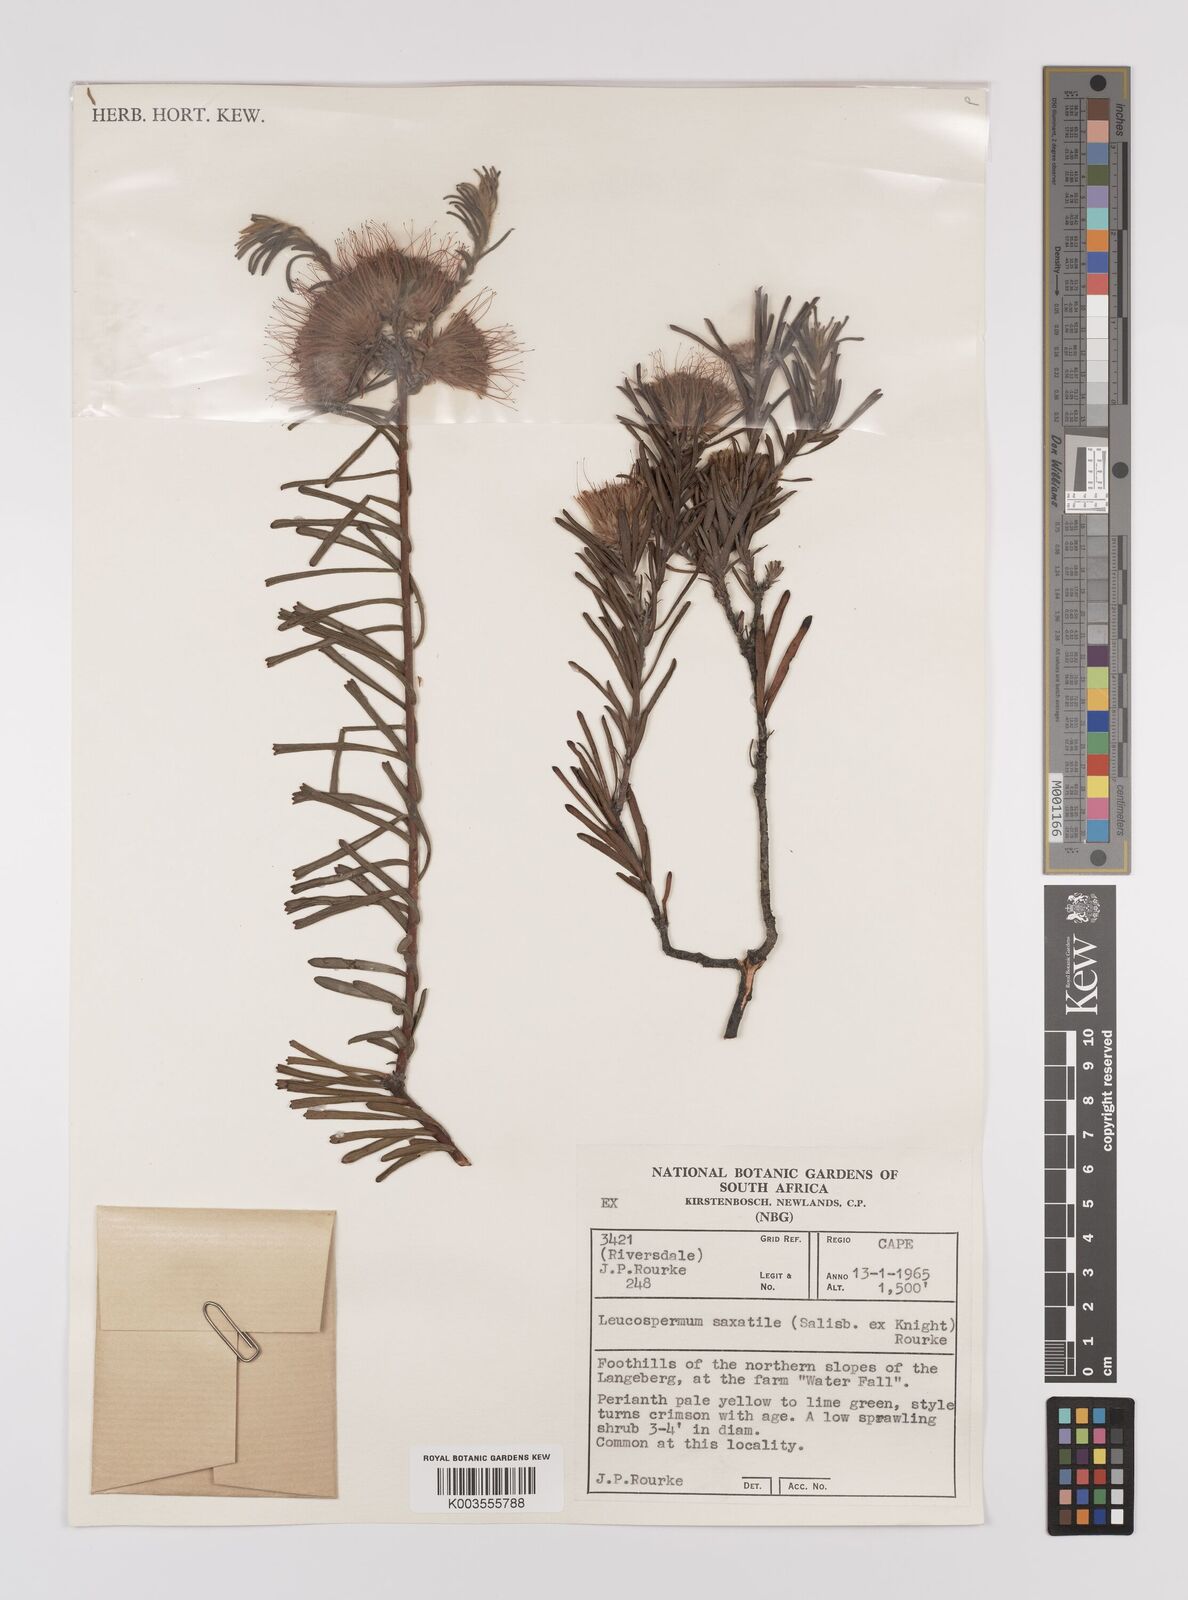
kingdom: Plantae
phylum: Tracheophyta
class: Magnoliopsida
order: Proteales
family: Proteaceae
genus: Leucospermum
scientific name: Leucospermum saxatile
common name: Karoo pincushion
